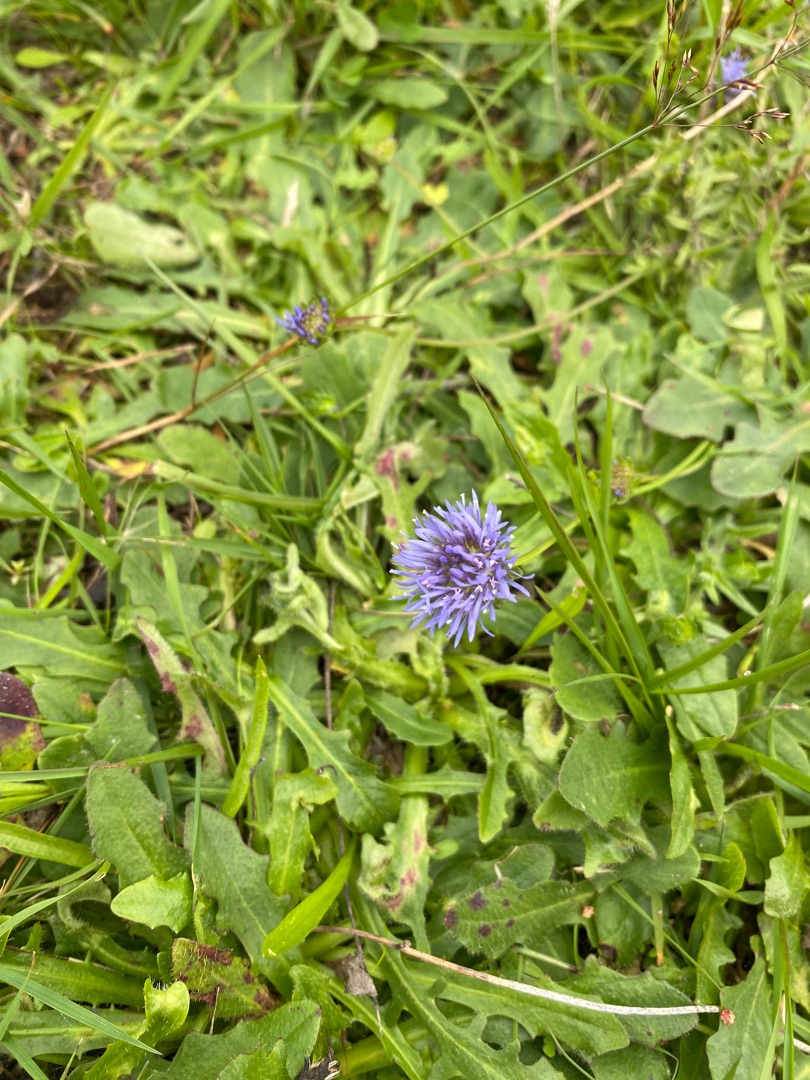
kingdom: Plantae
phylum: Tracheophyta
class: Magnoliopsida
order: Asterales
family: Campanulaceae
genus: Jasione
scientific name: Jasione montana
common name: Blåmunke
